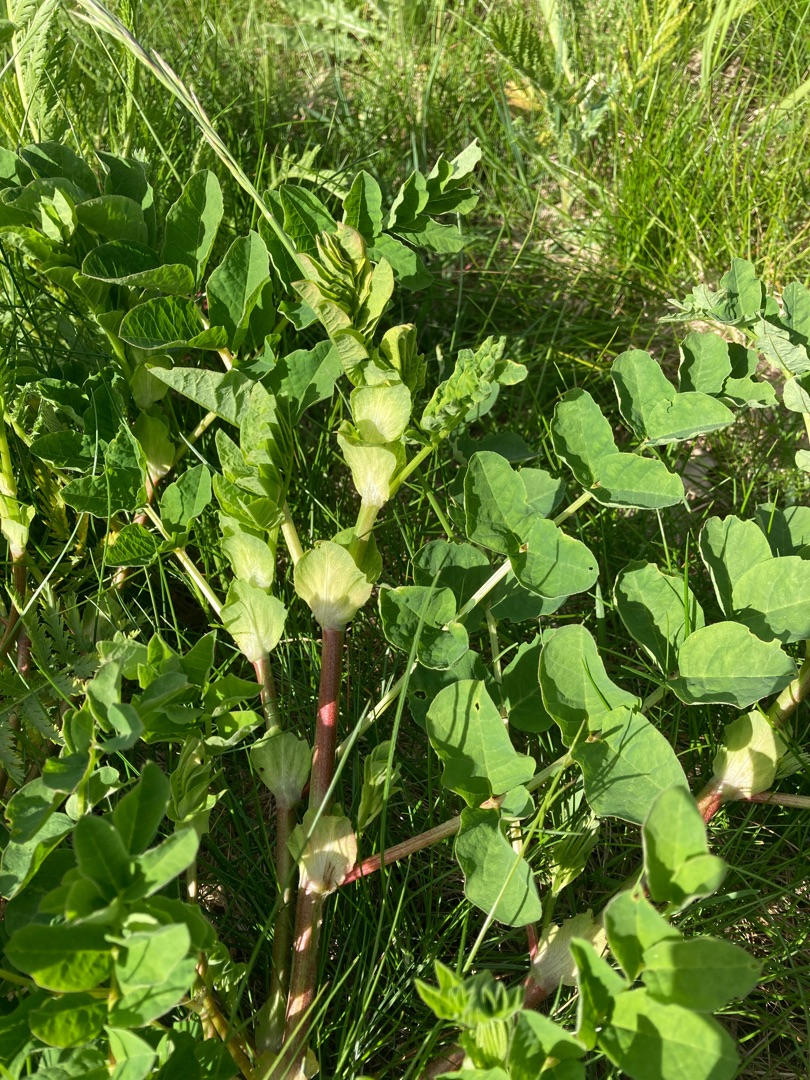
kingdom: Plantae
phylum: Tracheophyta
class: Magnoliopsida
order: Fabales
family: Fabaceae
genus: Astragalus
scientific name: Astragalus glycyphyllos
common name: Sød astragel
